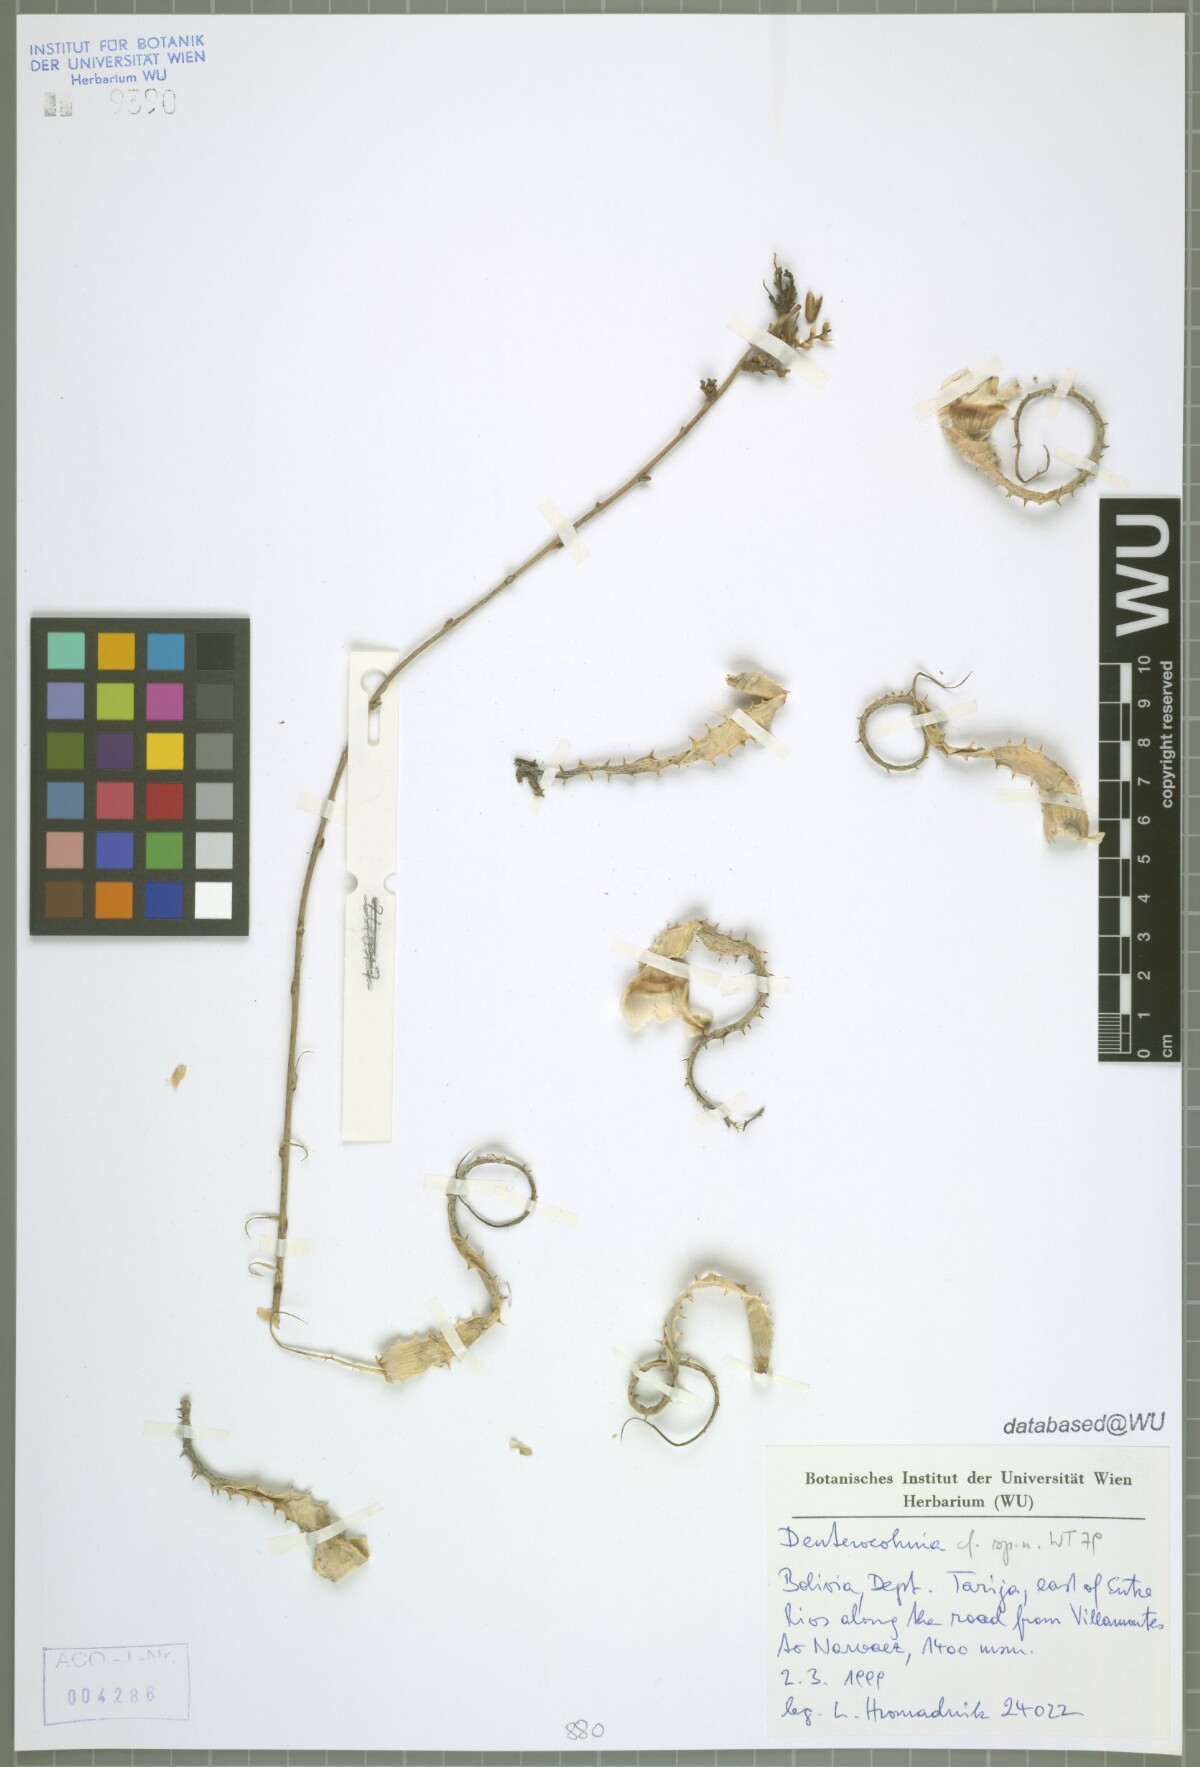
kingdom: Plantae
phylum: Tracheophyta
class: Liliopsida
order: Poales
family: Bromeliaceae
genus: Deuterocohnia
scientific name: Deuterocohnia
